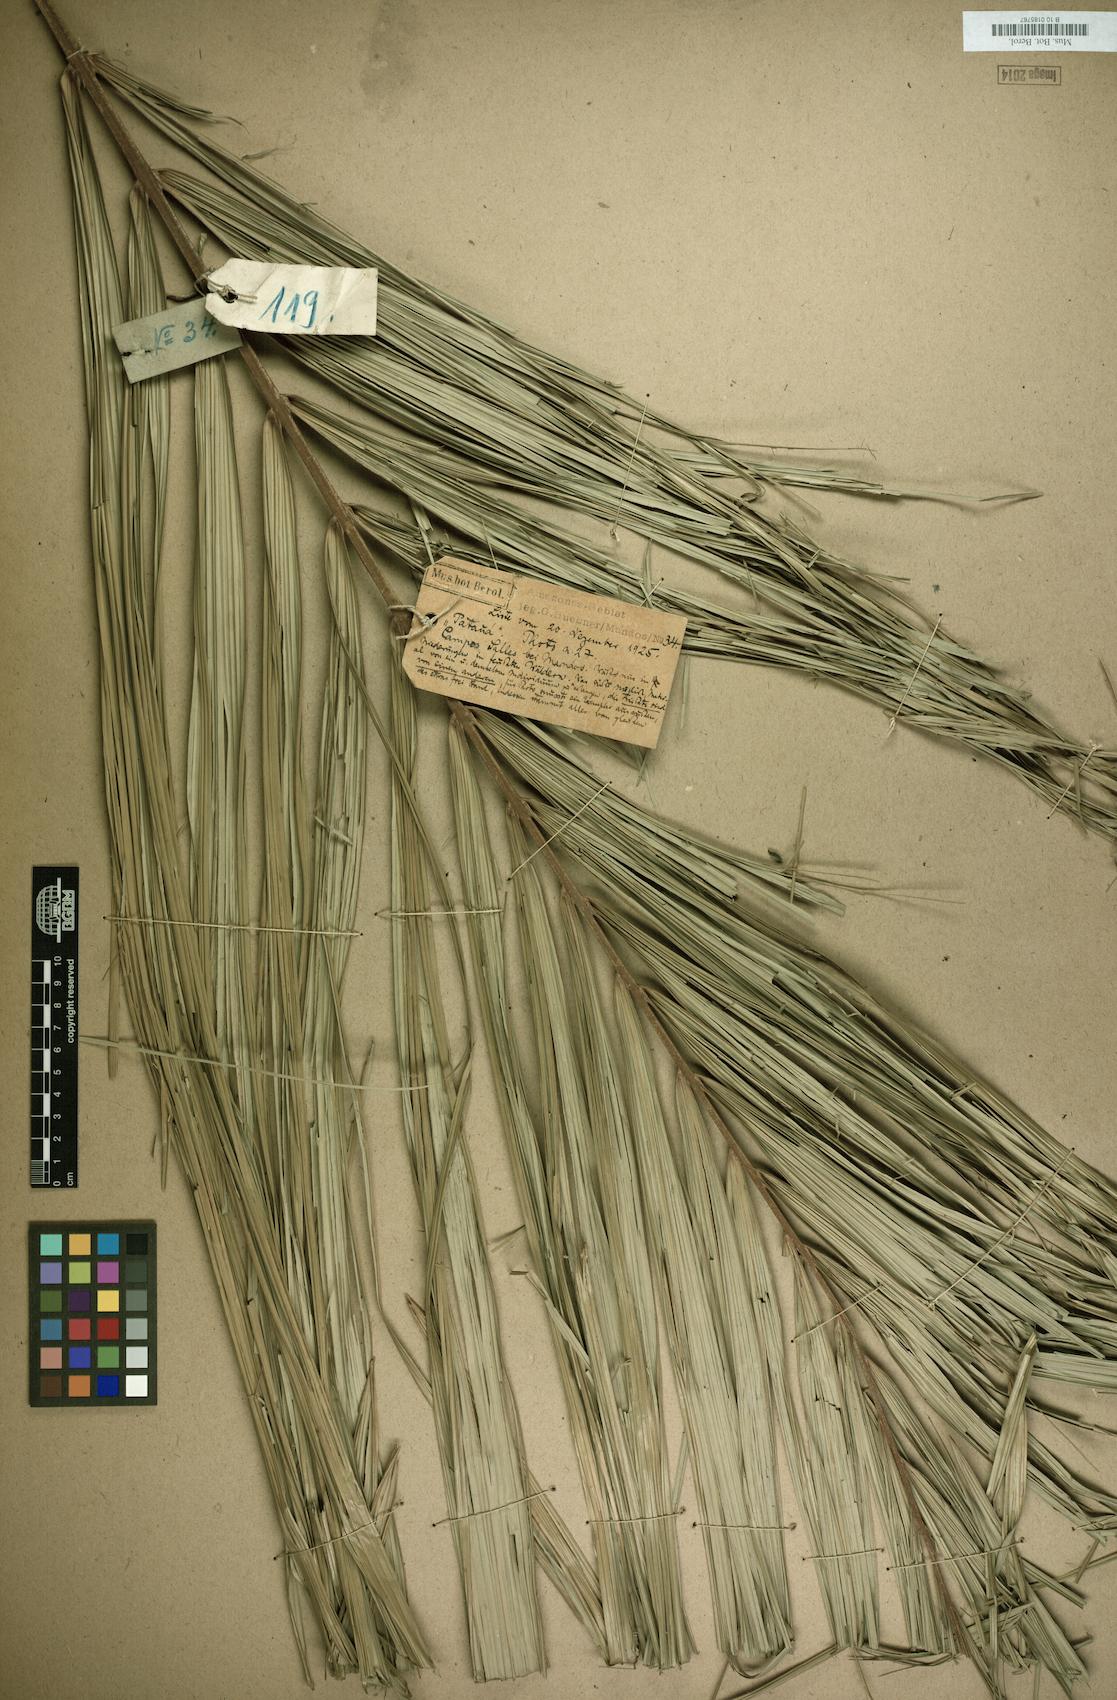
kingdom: Plantae
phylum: Tracheophyta
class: Liliopsida
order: Arecales
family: Arecaceae
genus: Oenocarpus
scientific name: Oenocarpus bataua
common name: Bataua palm
